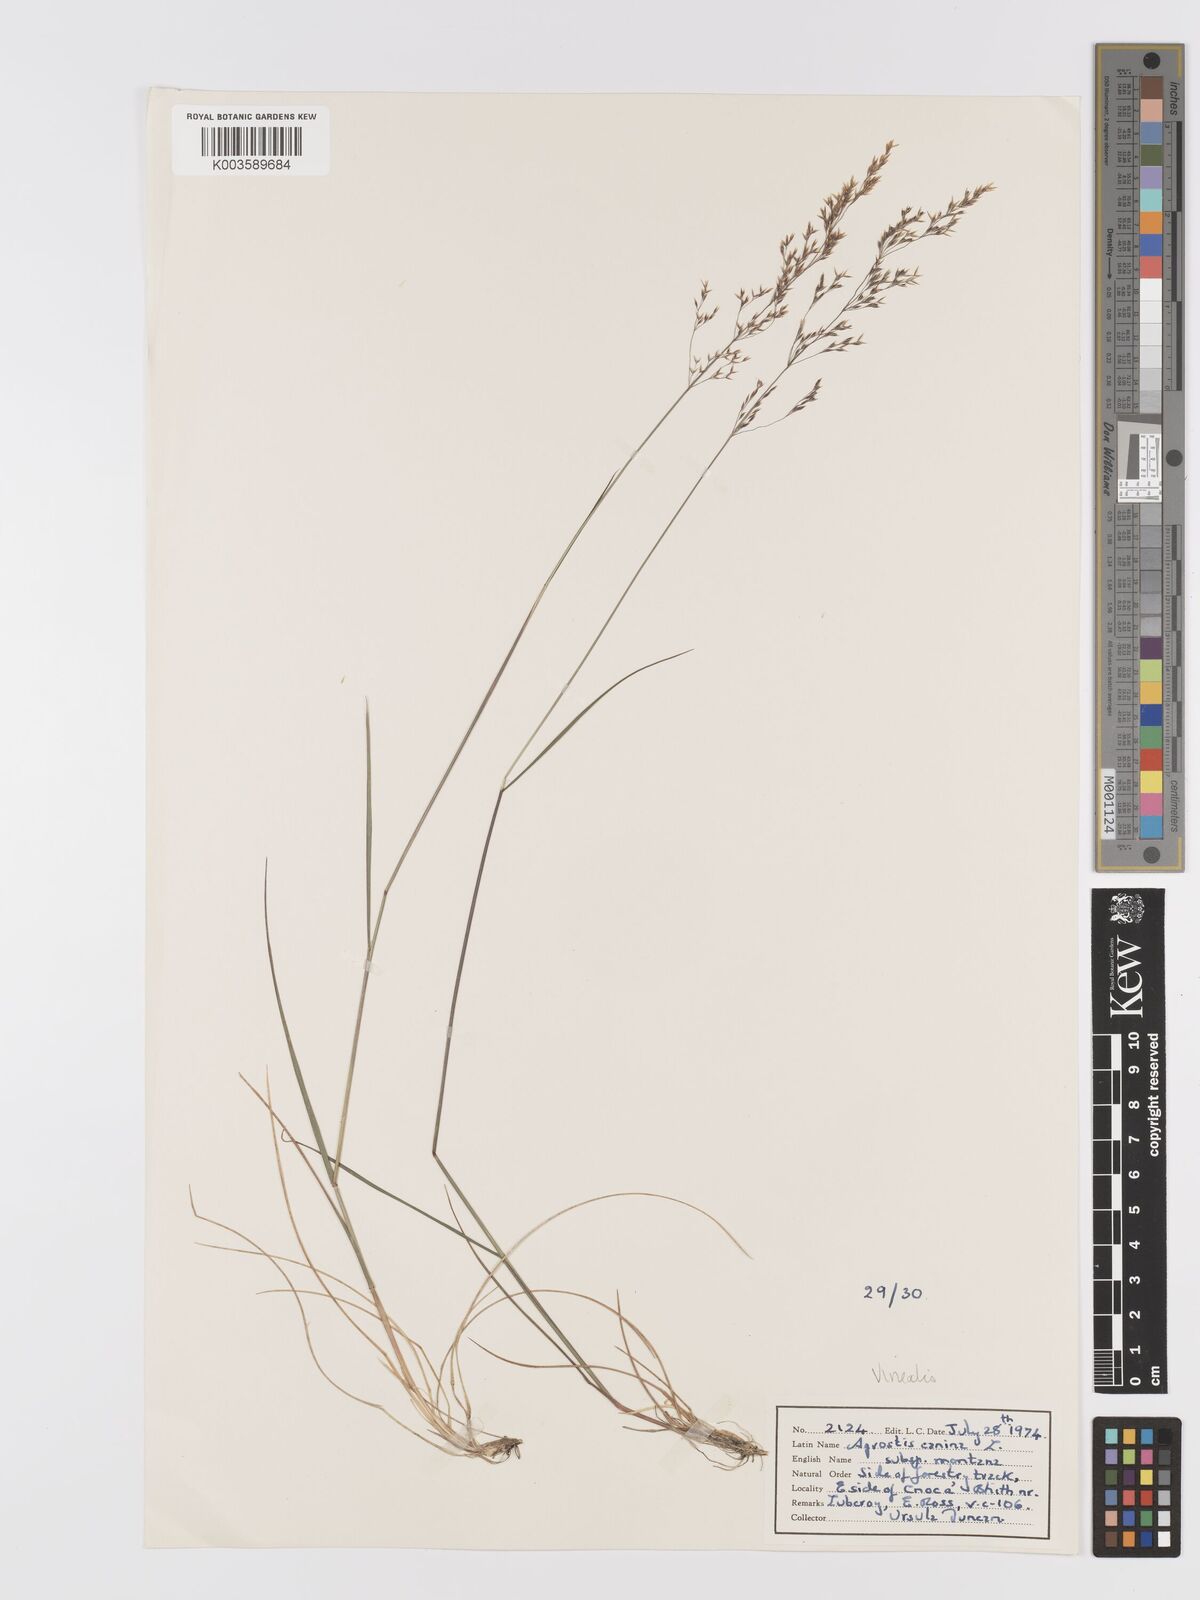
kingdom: Plantae
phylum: Tracheophyta
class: Liliopsida
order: Poales
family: Poaceae
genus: Agrostis
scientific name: Agrostis
